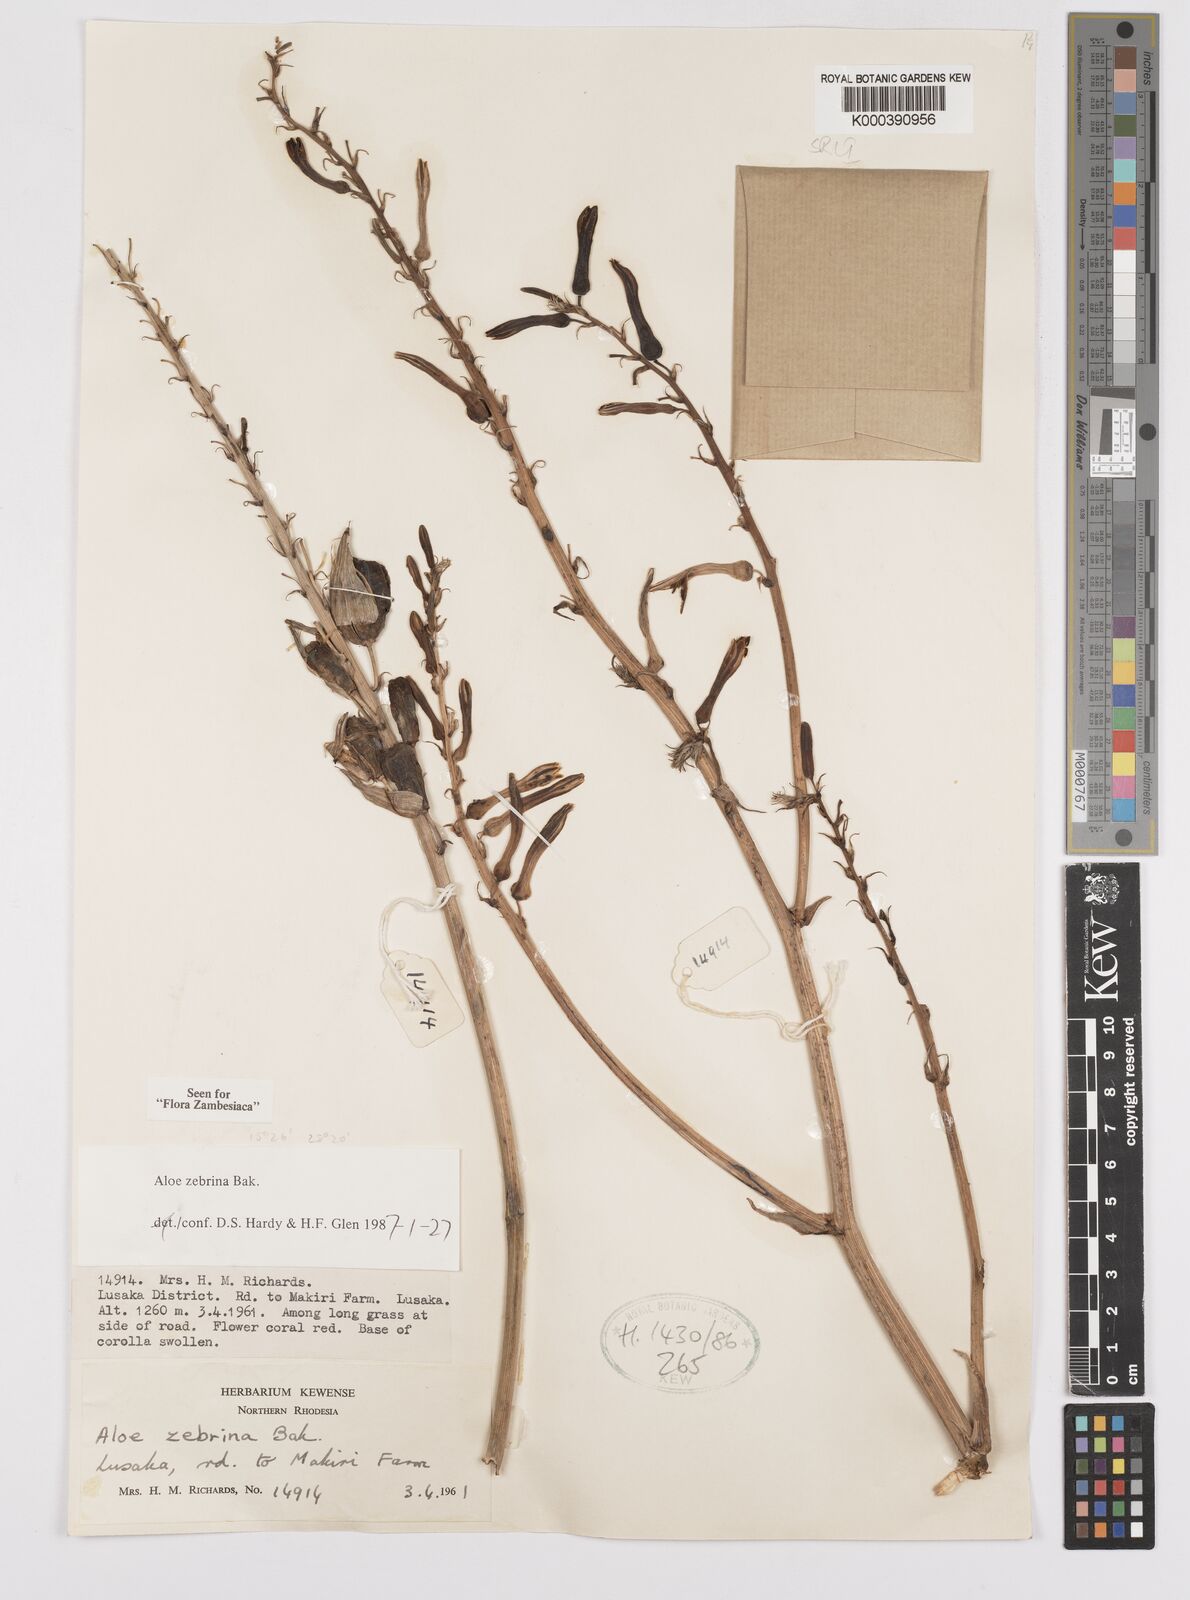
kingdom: Plantae
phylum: Tracheophyta
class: Liliopsida
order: Asparagales
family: Asphodelaceae
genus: Aloe
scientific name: Aloe zebrina
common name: Zebra-leaf aloe
